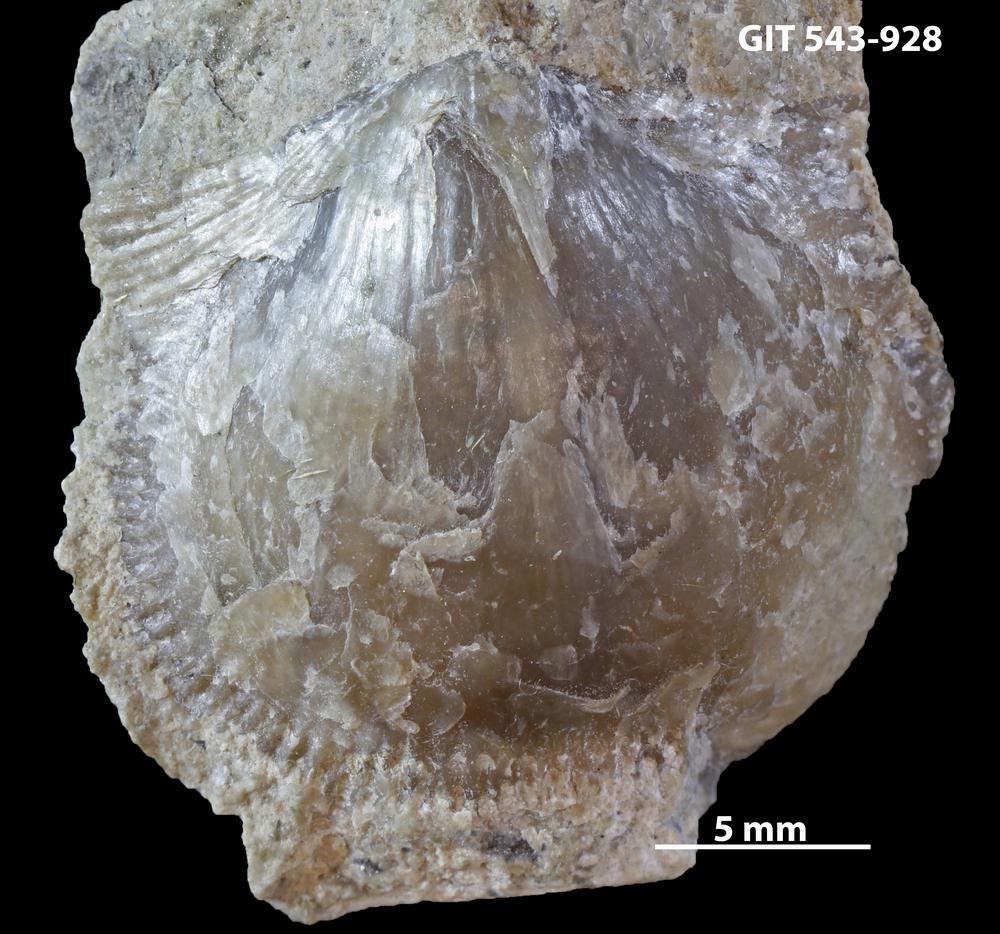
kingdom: Animalia
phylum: Brachiopoda
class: Rhynchonellata
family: Clitambonitidae
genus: Clitambonites
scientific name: Clitambonites
